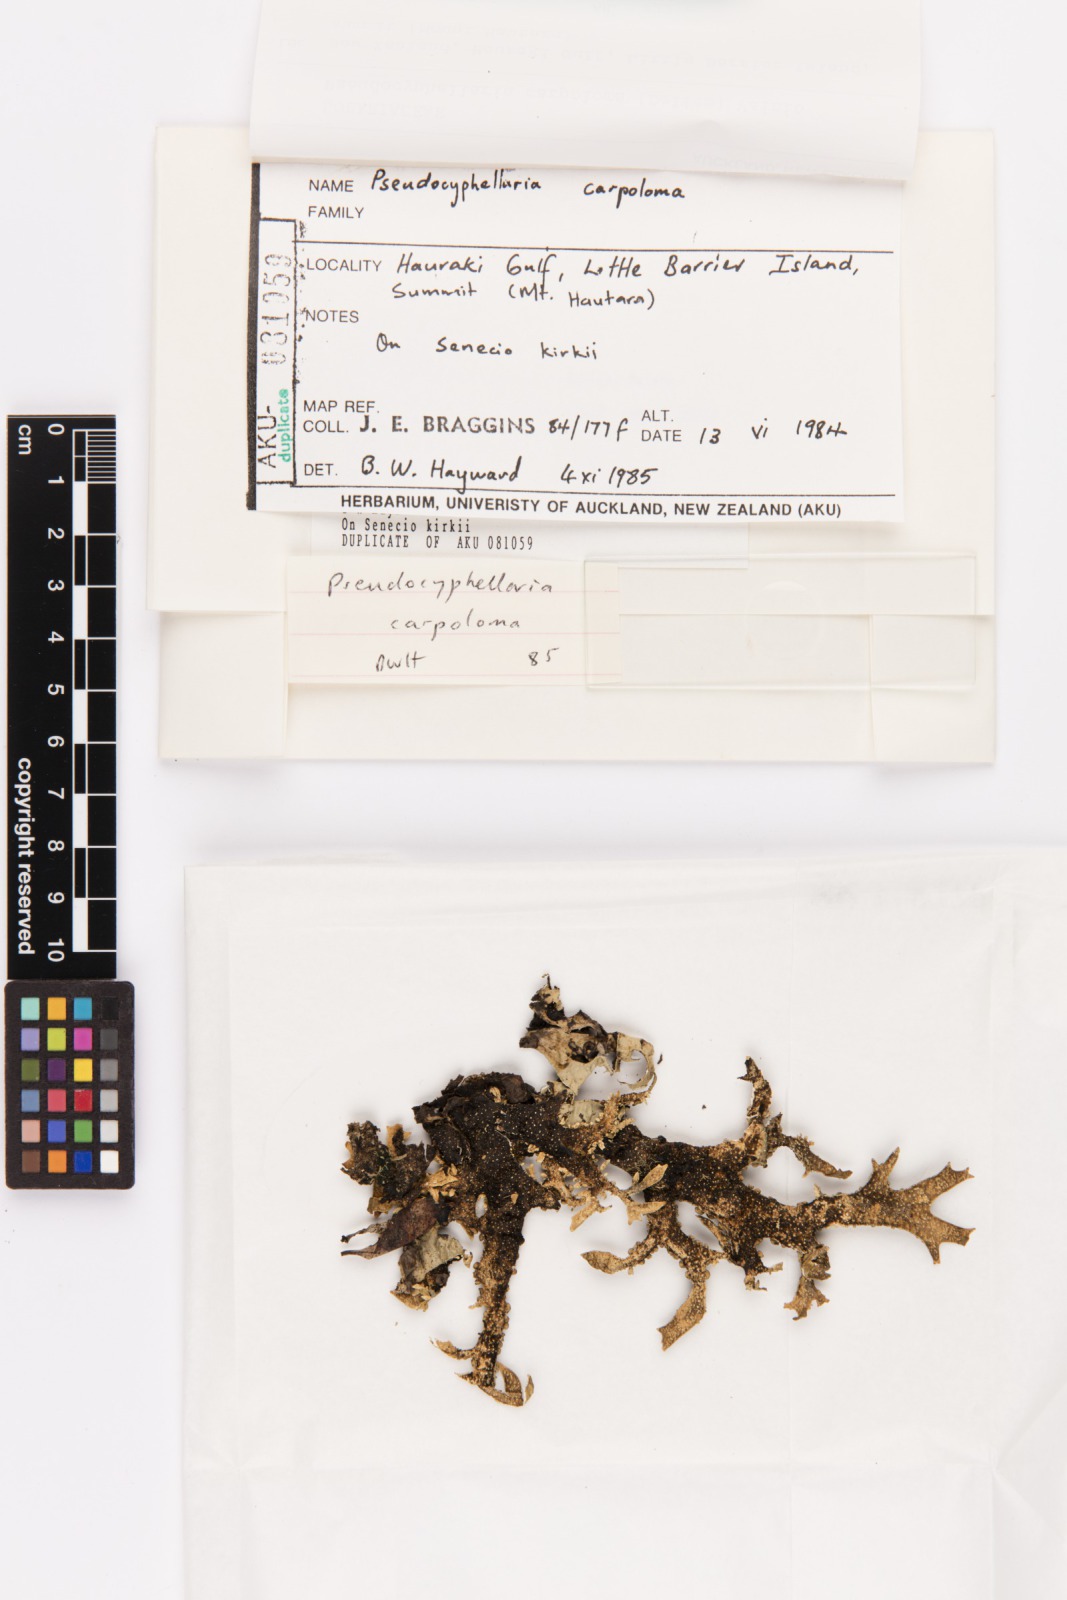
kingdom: Fungi
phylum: Ascomycota
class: Lecanoromycetes
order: Peltigerales
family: Lobariaceae
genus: Pseudocyphellaria
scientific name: Pseudocyphellaria carpoloma
